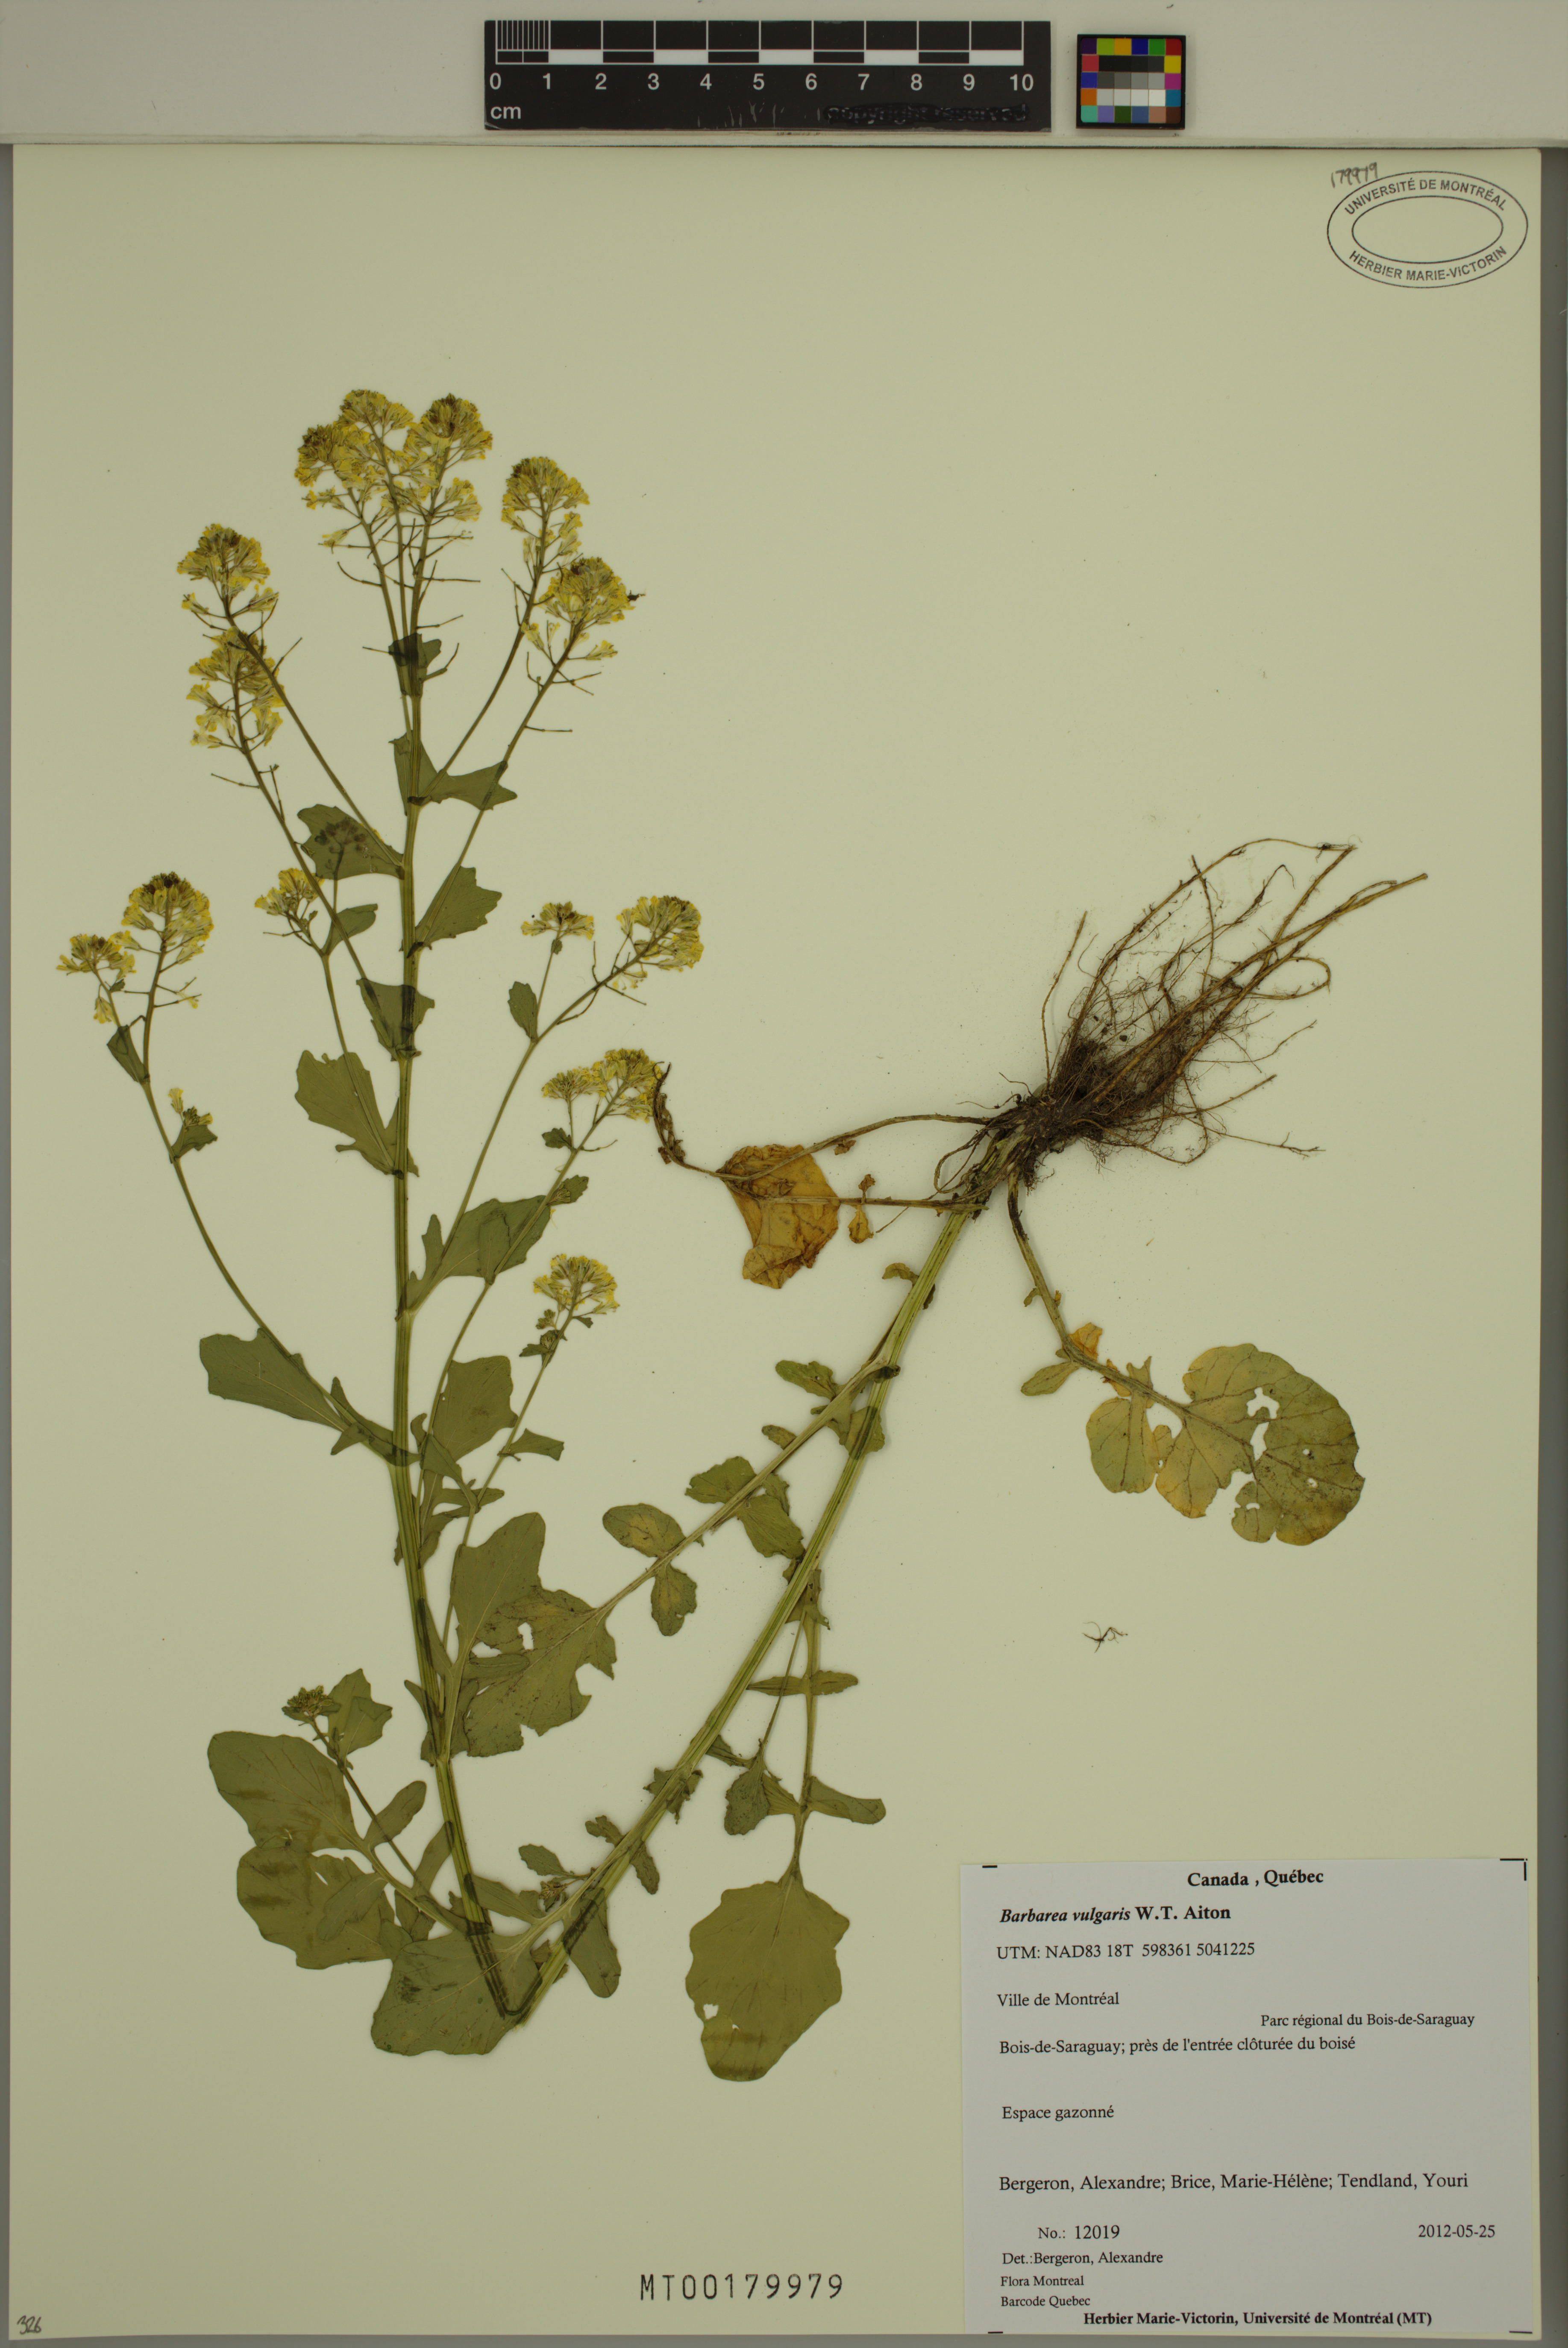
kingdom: Plantae
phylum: Tracheophyta
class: Magnoliopsida
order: Brassicales
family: Brassicaceae
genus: Barbarea
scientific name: Barbarea vulgaris
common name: Cressy-greens
